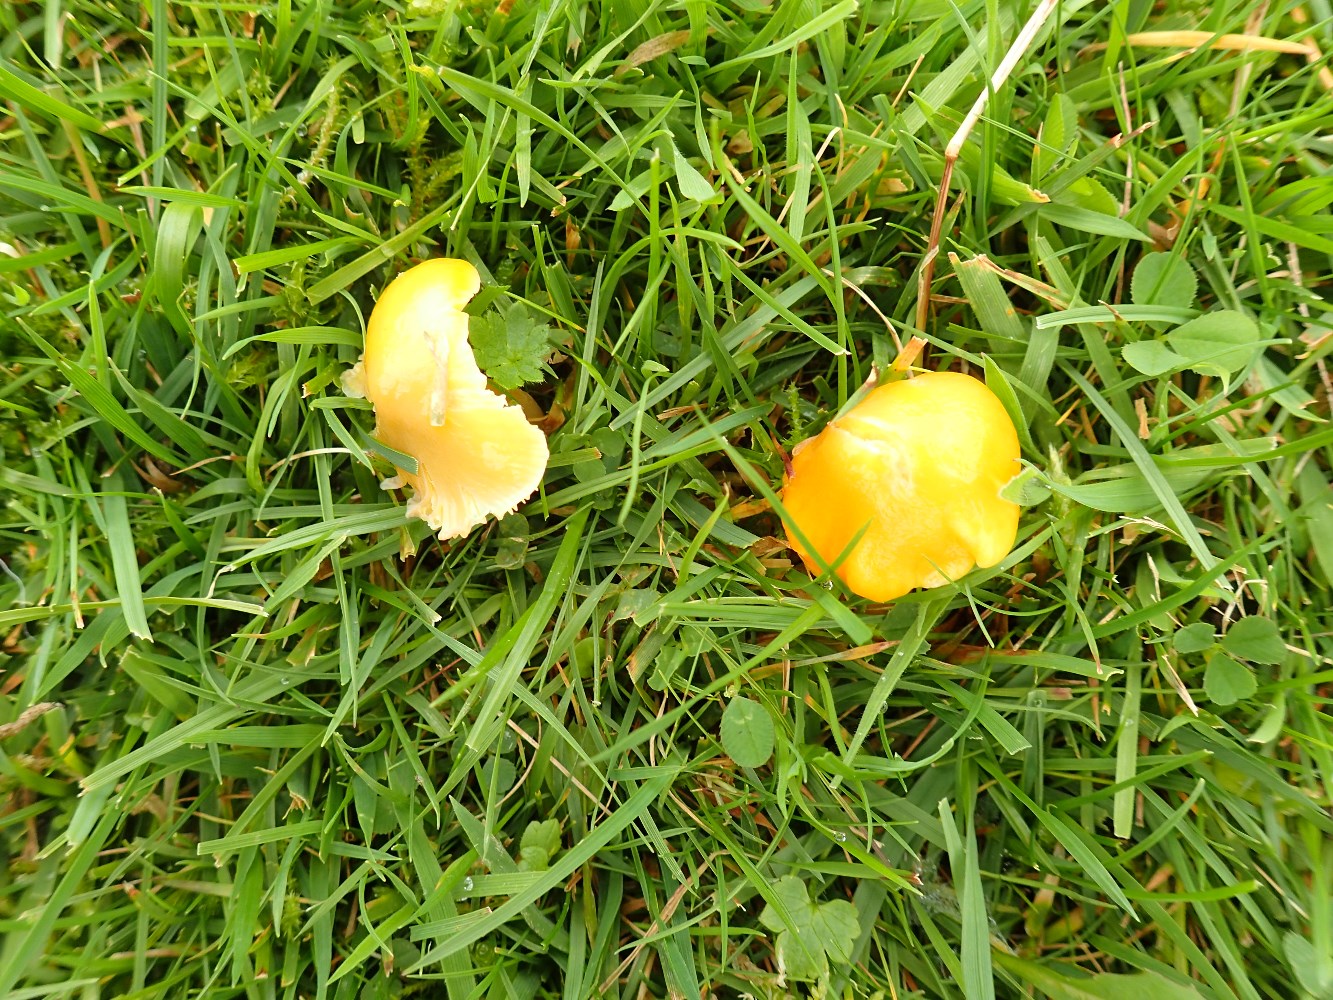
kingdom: Fungi
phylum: Basidiomycota
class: Agaricomycetes
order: Agaricales
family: Hygrophoraceae
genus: Hygrocybe
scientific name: Hygrocybe chlorophana
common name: gul vokshat
